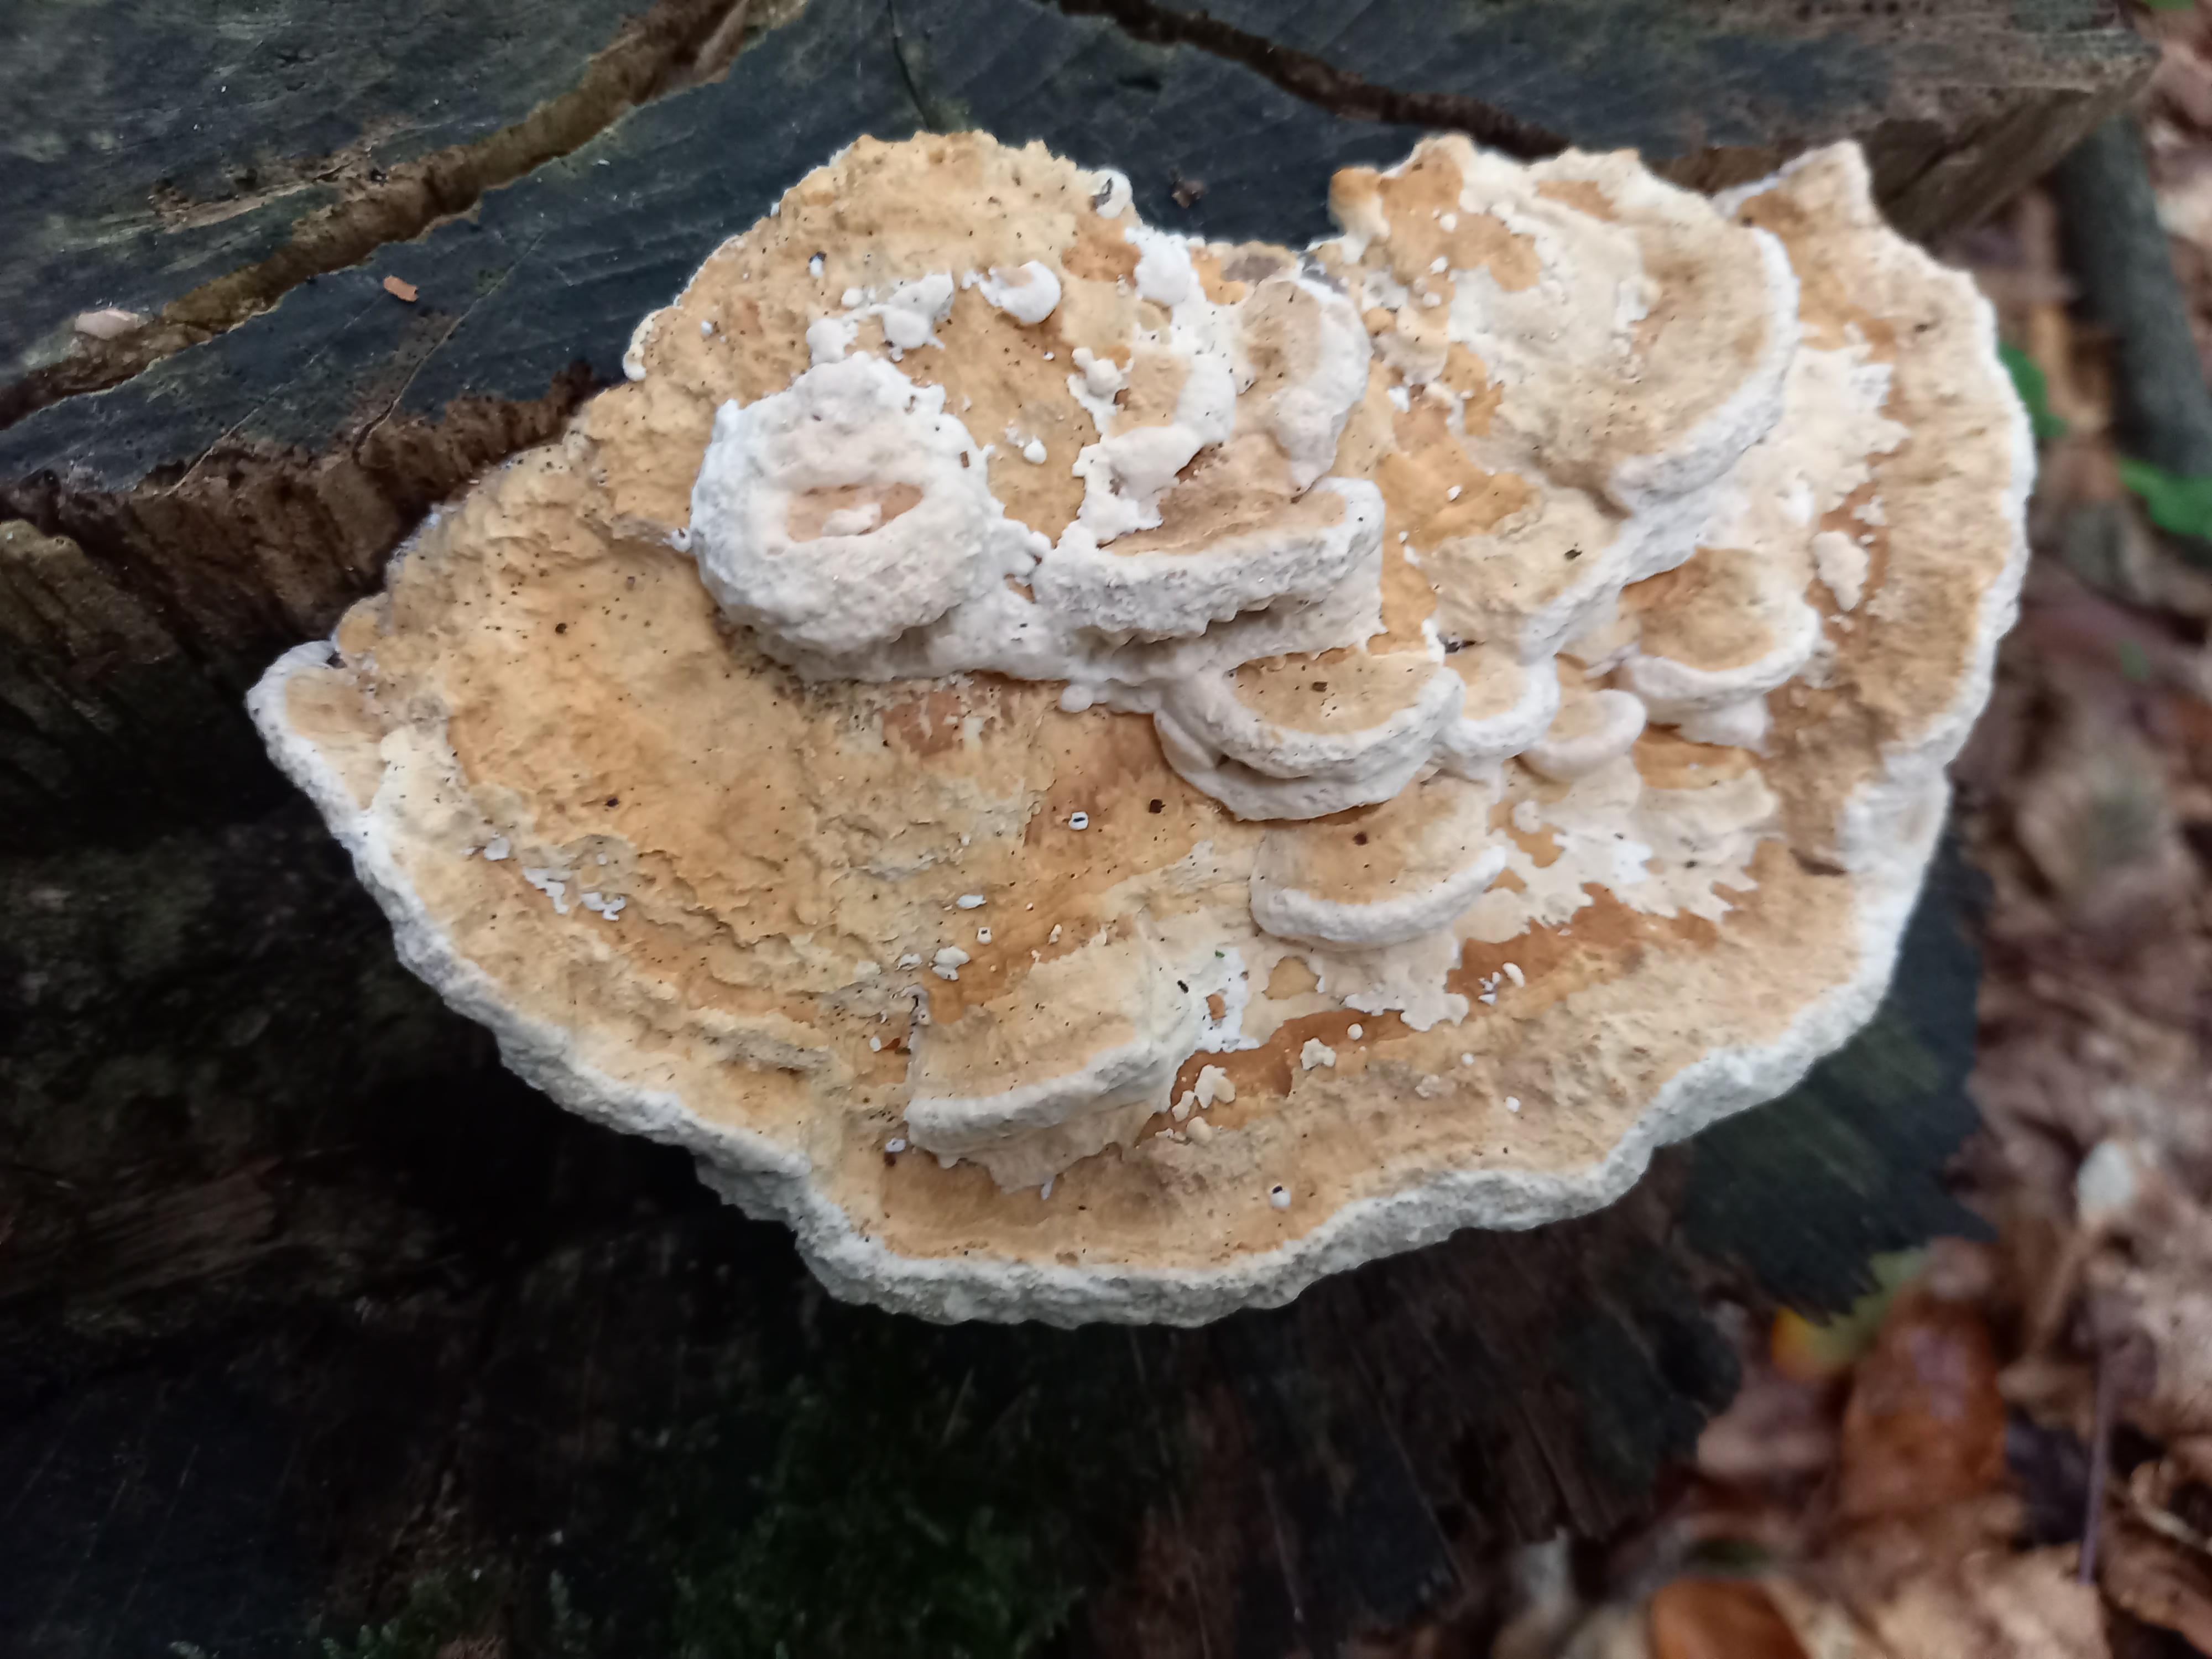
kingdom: Fungi
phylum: Basidiomycota
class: Agaricomycetes
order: Polyporales
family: Fomitopsidaceae
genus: Daedalea
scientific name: Daedalea quercina
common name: ege-labyrintsvamp
